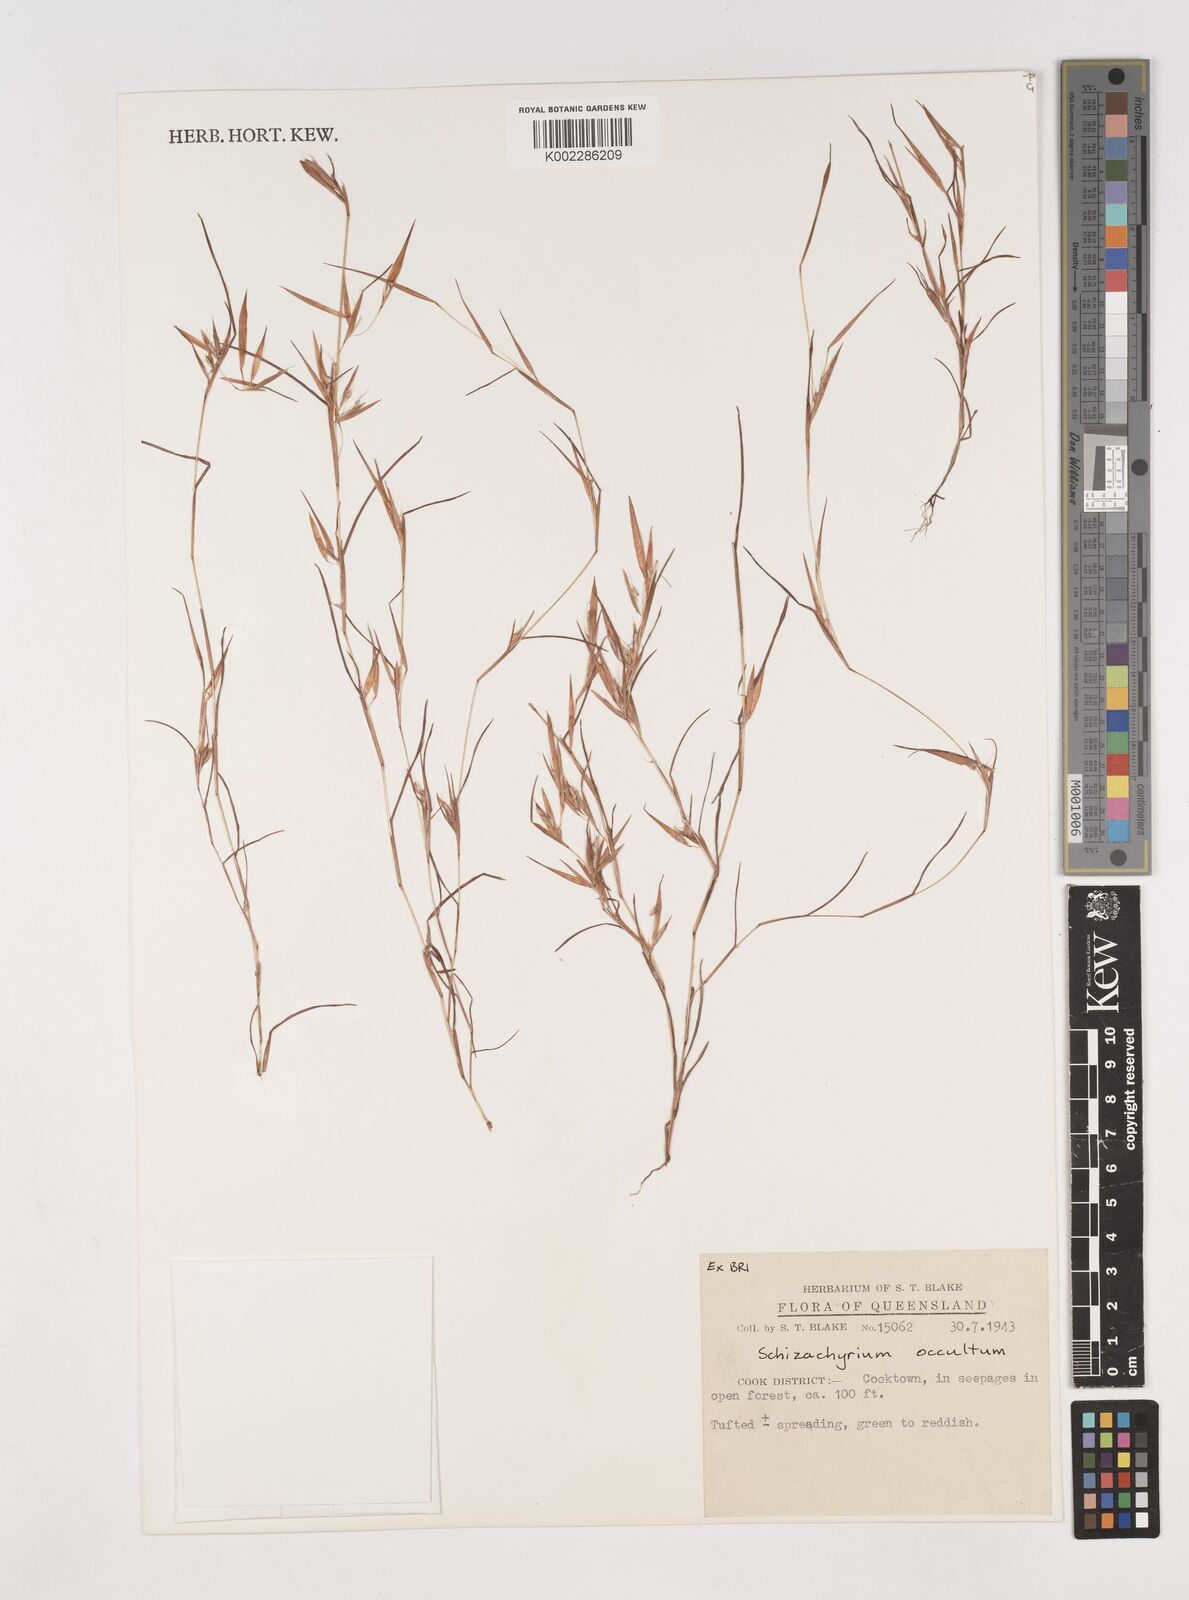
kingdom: Plantae
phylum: Tracheophyta
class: Liliopsida
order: Poales
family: Poaceae
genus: Schizachyrium
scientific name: Schizachyrium occultum
